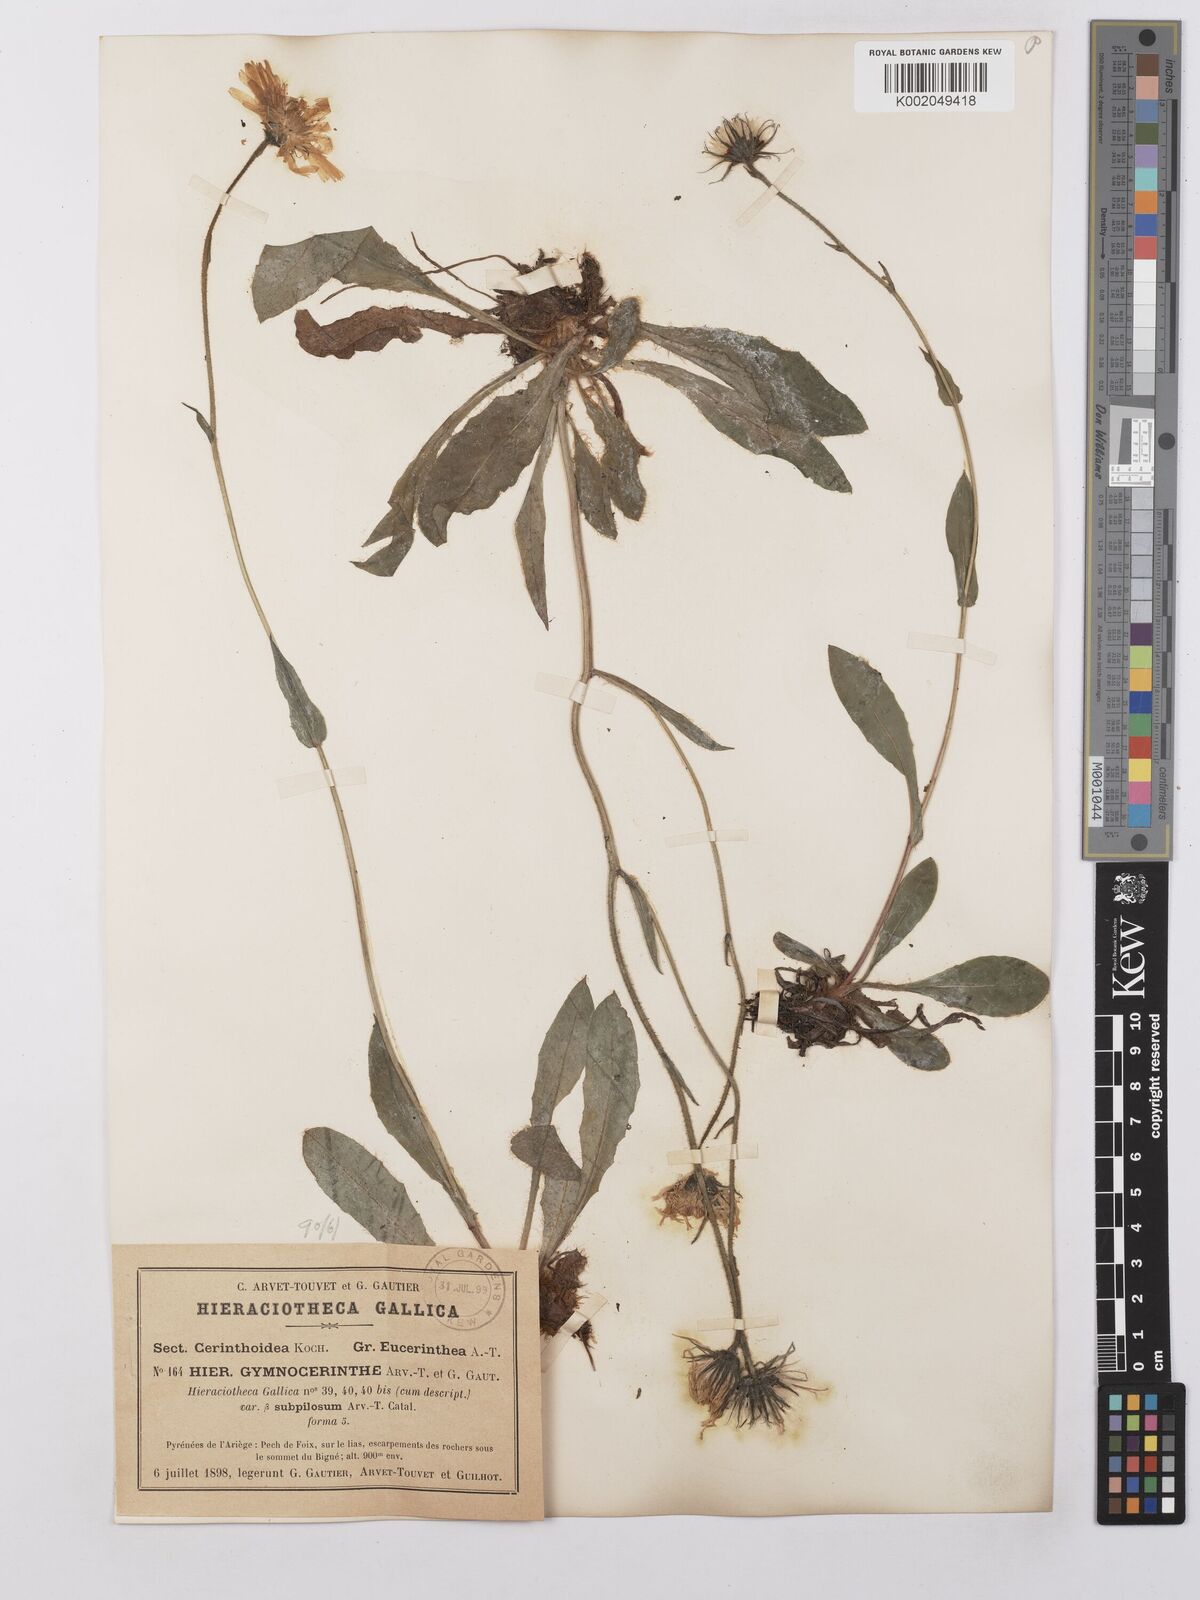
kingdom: Plantae
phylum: Tracheophyta
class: Magnoliopsida
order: Asterales
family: Asteraceae
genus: Hieracium
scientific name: Hieracium cerinthoides
